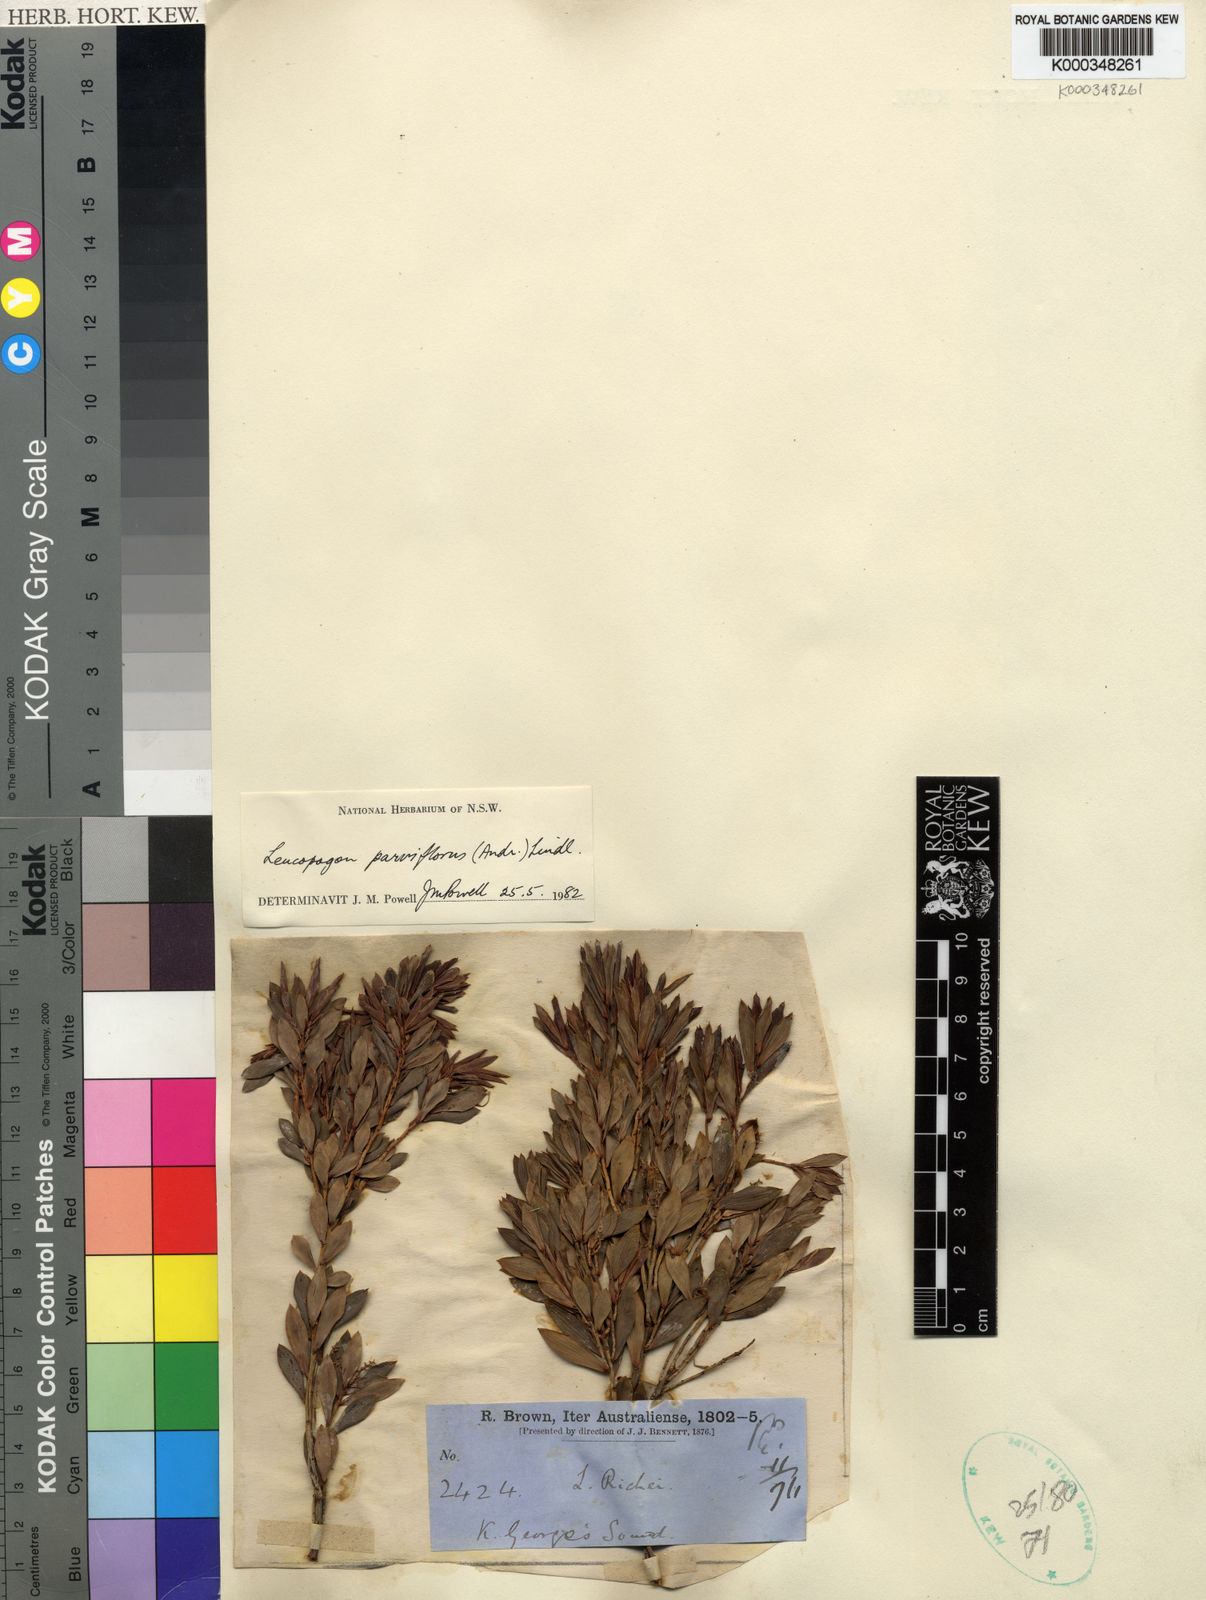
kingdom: Plantae
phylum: Tracheophyta
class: Magnoliopsida
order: Ericales
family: Ericaceae
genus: Leptecophylla
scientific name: Leptecophylla parvifolia
